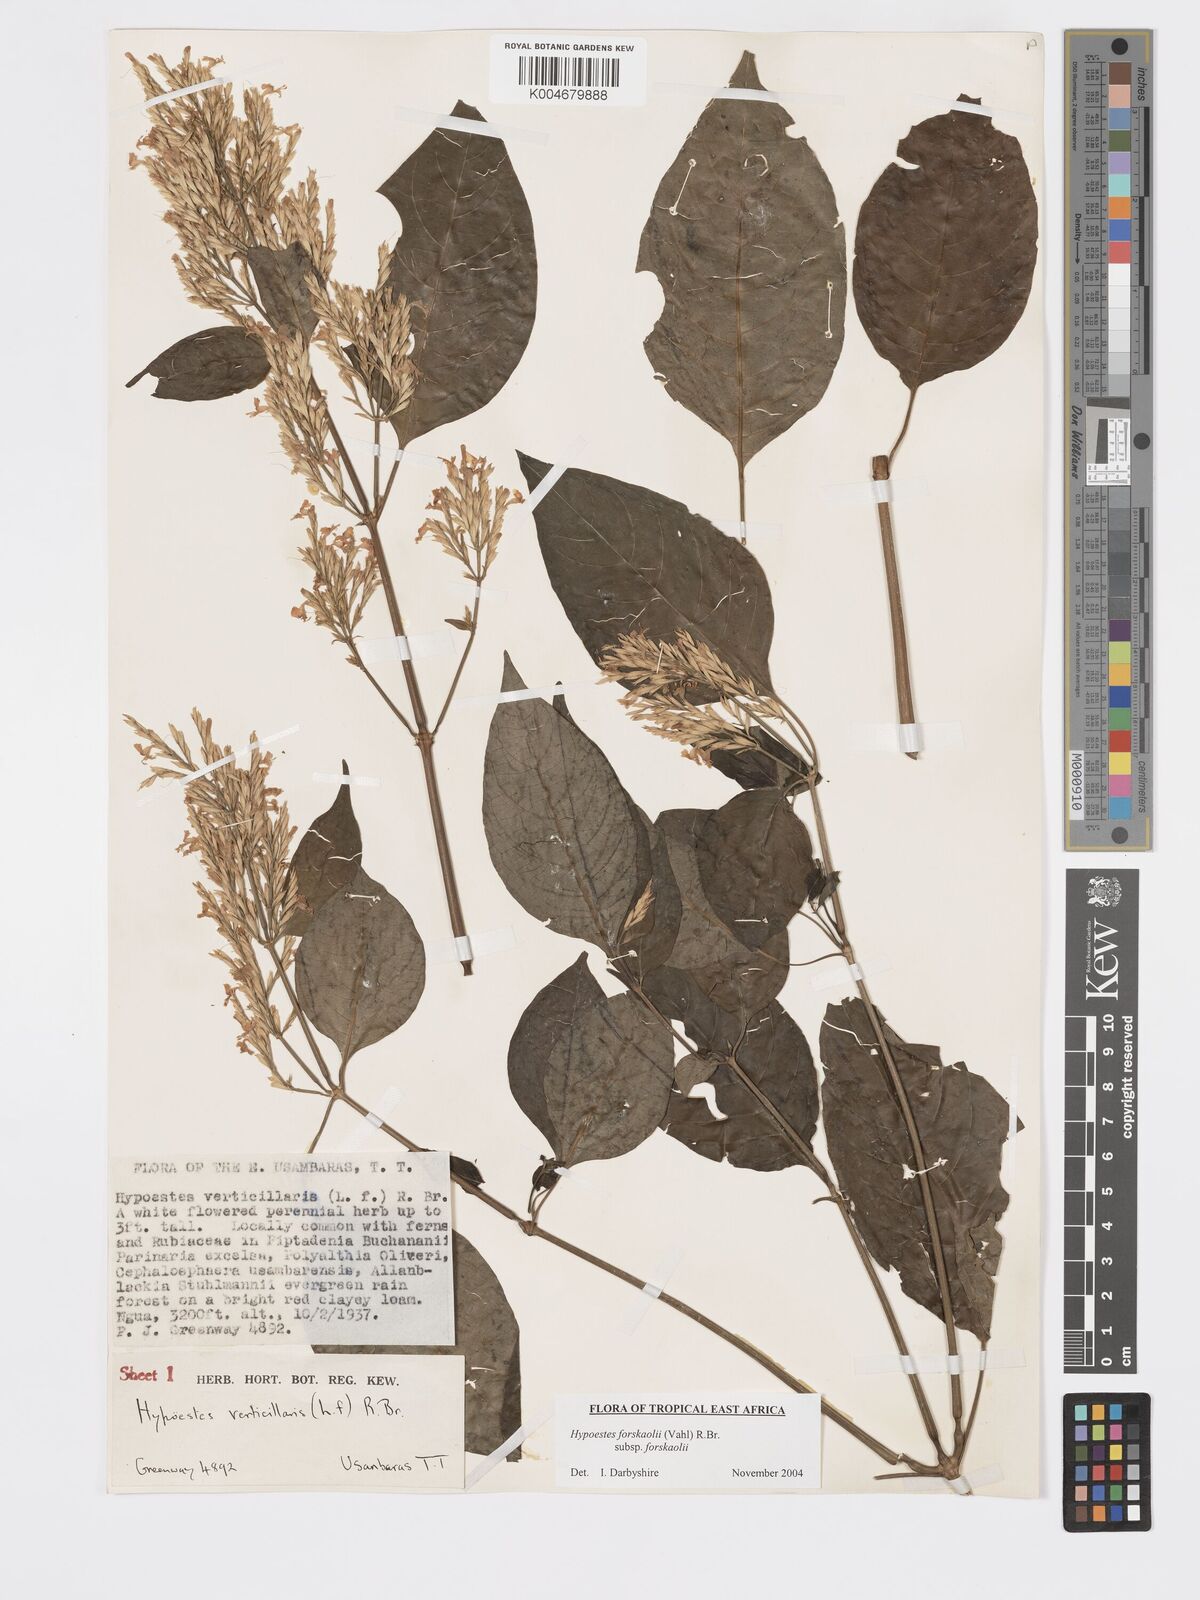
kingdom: Plantae
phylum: Tracheophyta
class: Magnoliopsida
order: Lamiales
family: Acanthaceae
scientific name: Acanthaceae
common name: Acanthaceae
